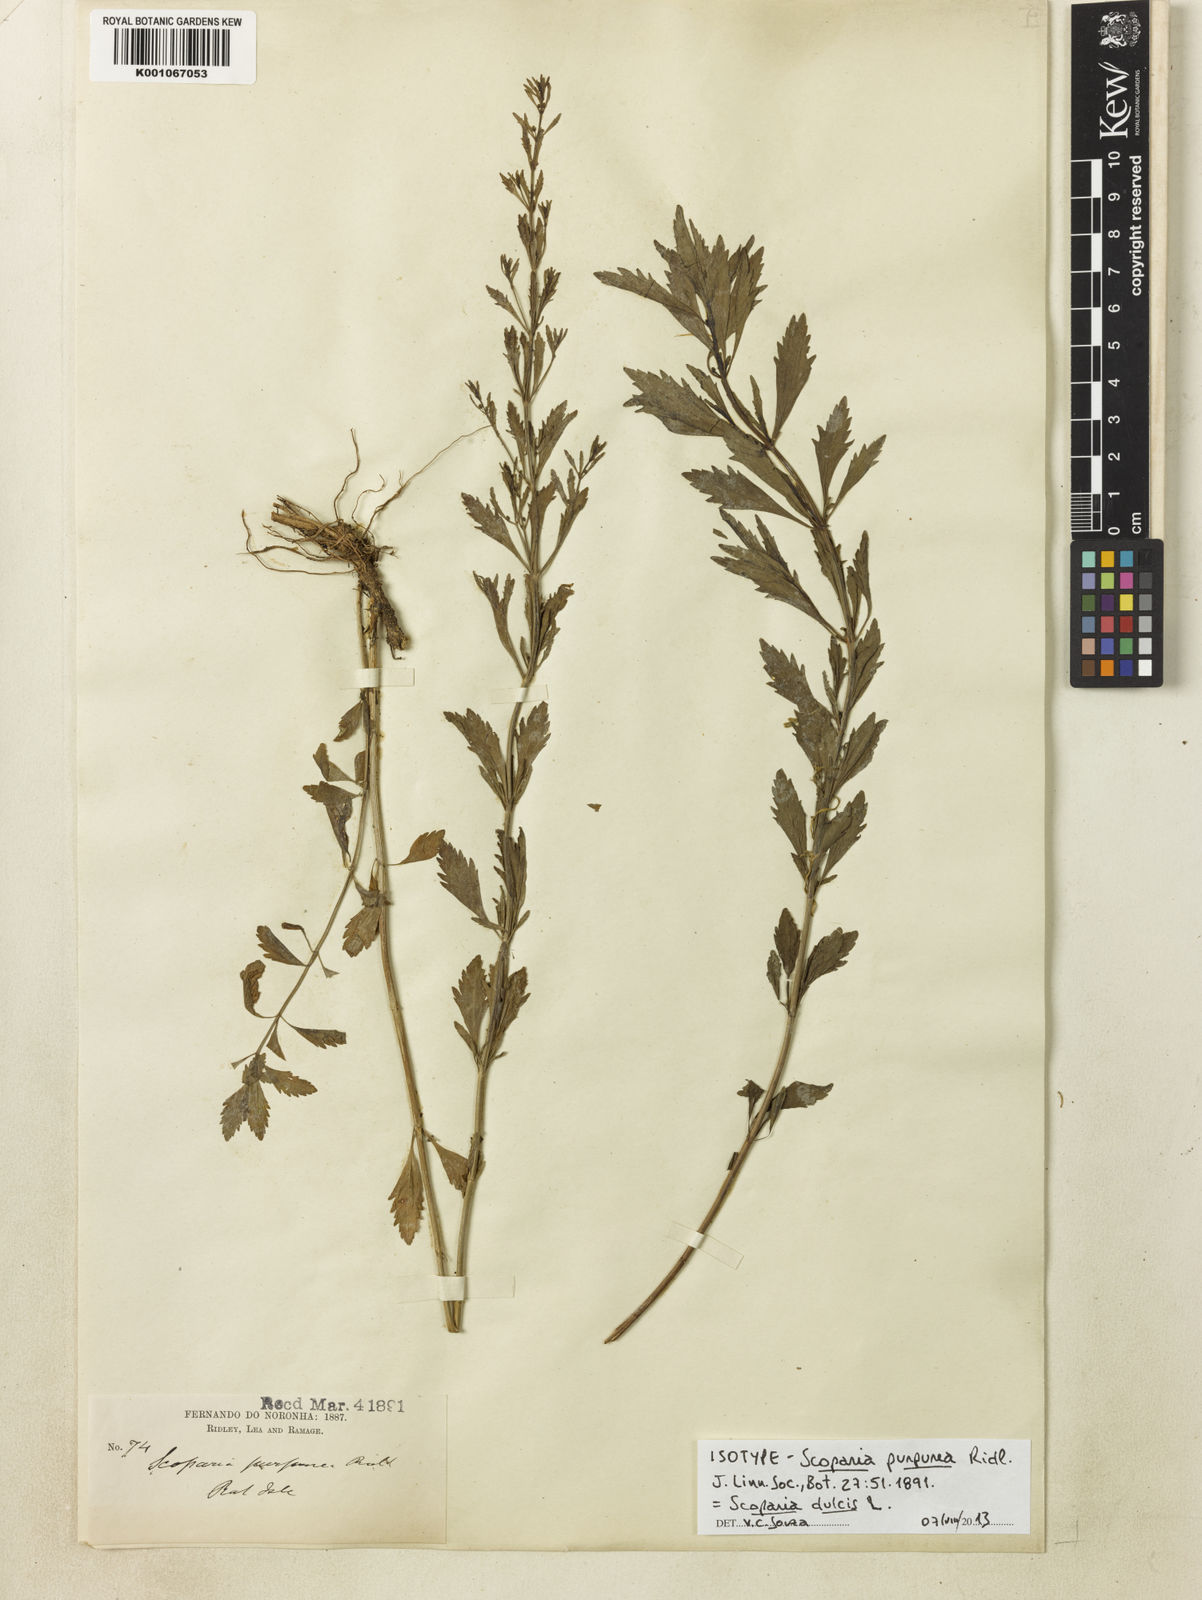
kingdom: Plantae
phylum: Tracheophyta
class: Magnoliopsida
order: Lamiales
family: Plantaginaceae
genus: Scoparia
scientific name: Scoparia dulcis
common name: Scoparia-weed
